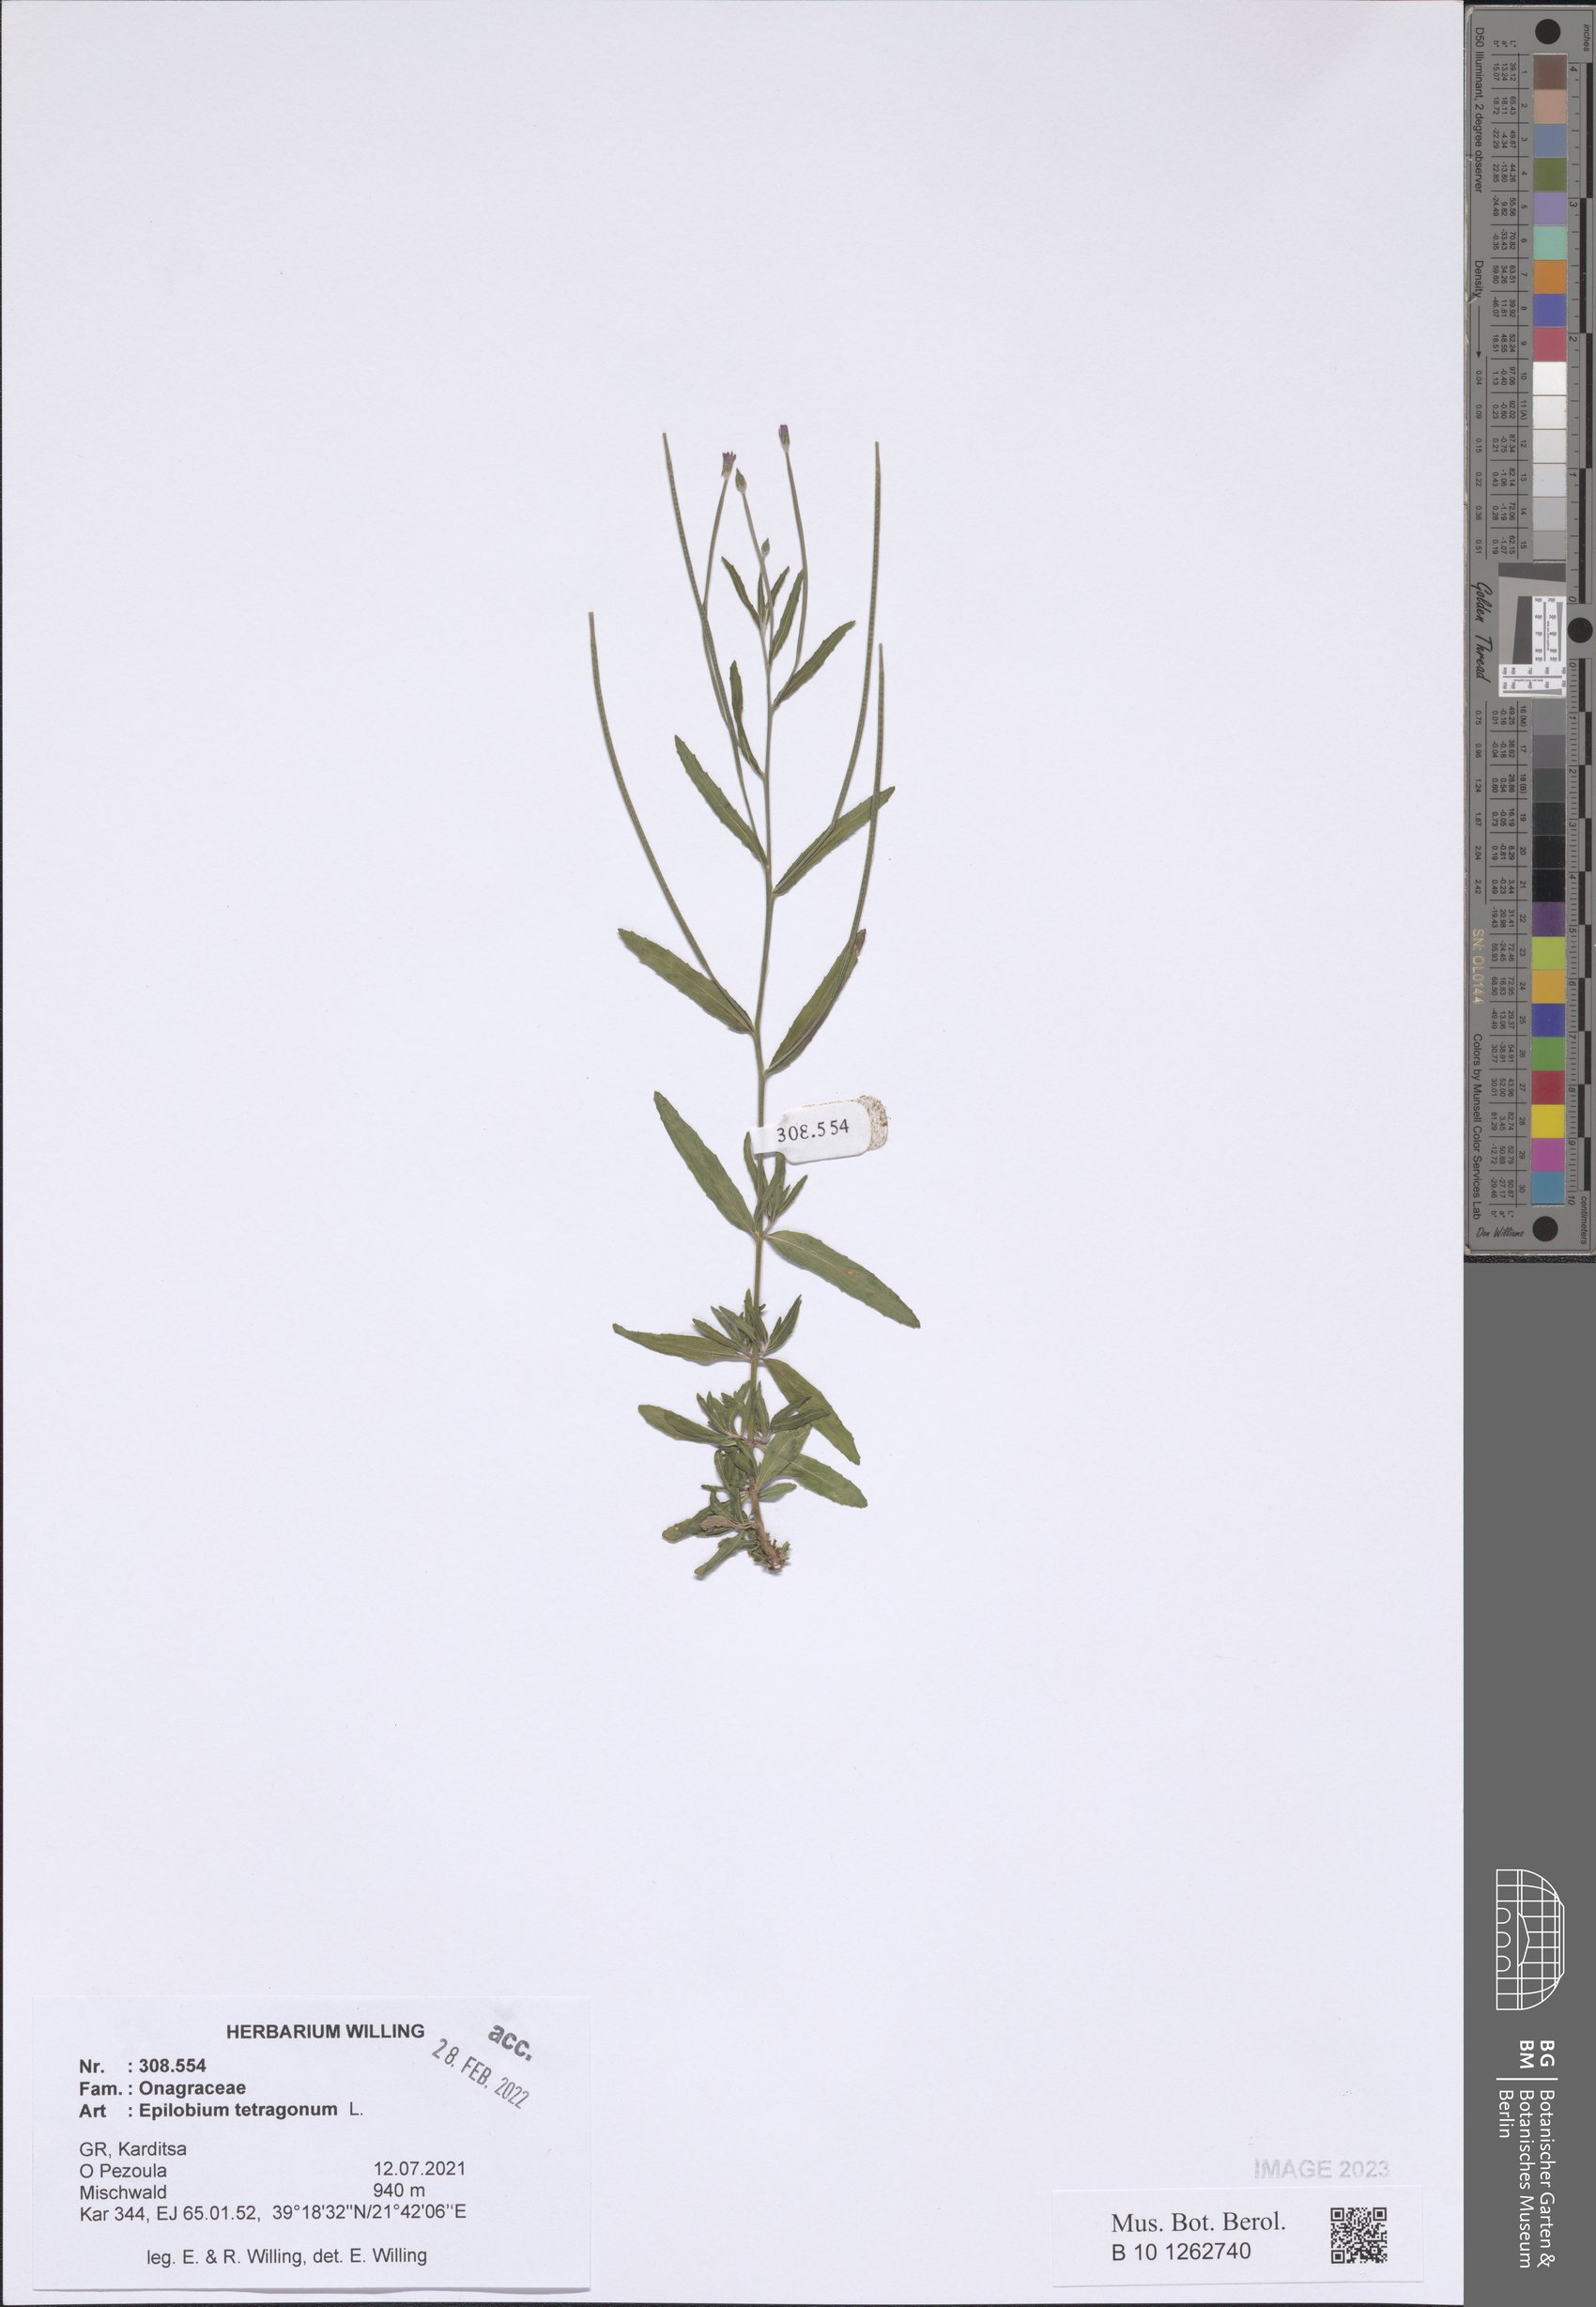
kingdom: Plantae
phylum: Tracheophyta
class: Magnoliopsida
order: Myrtales
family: Onagraceae
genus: Epilobium
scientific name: Epilobium tetragonum
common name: Square-stemmed willowherb
